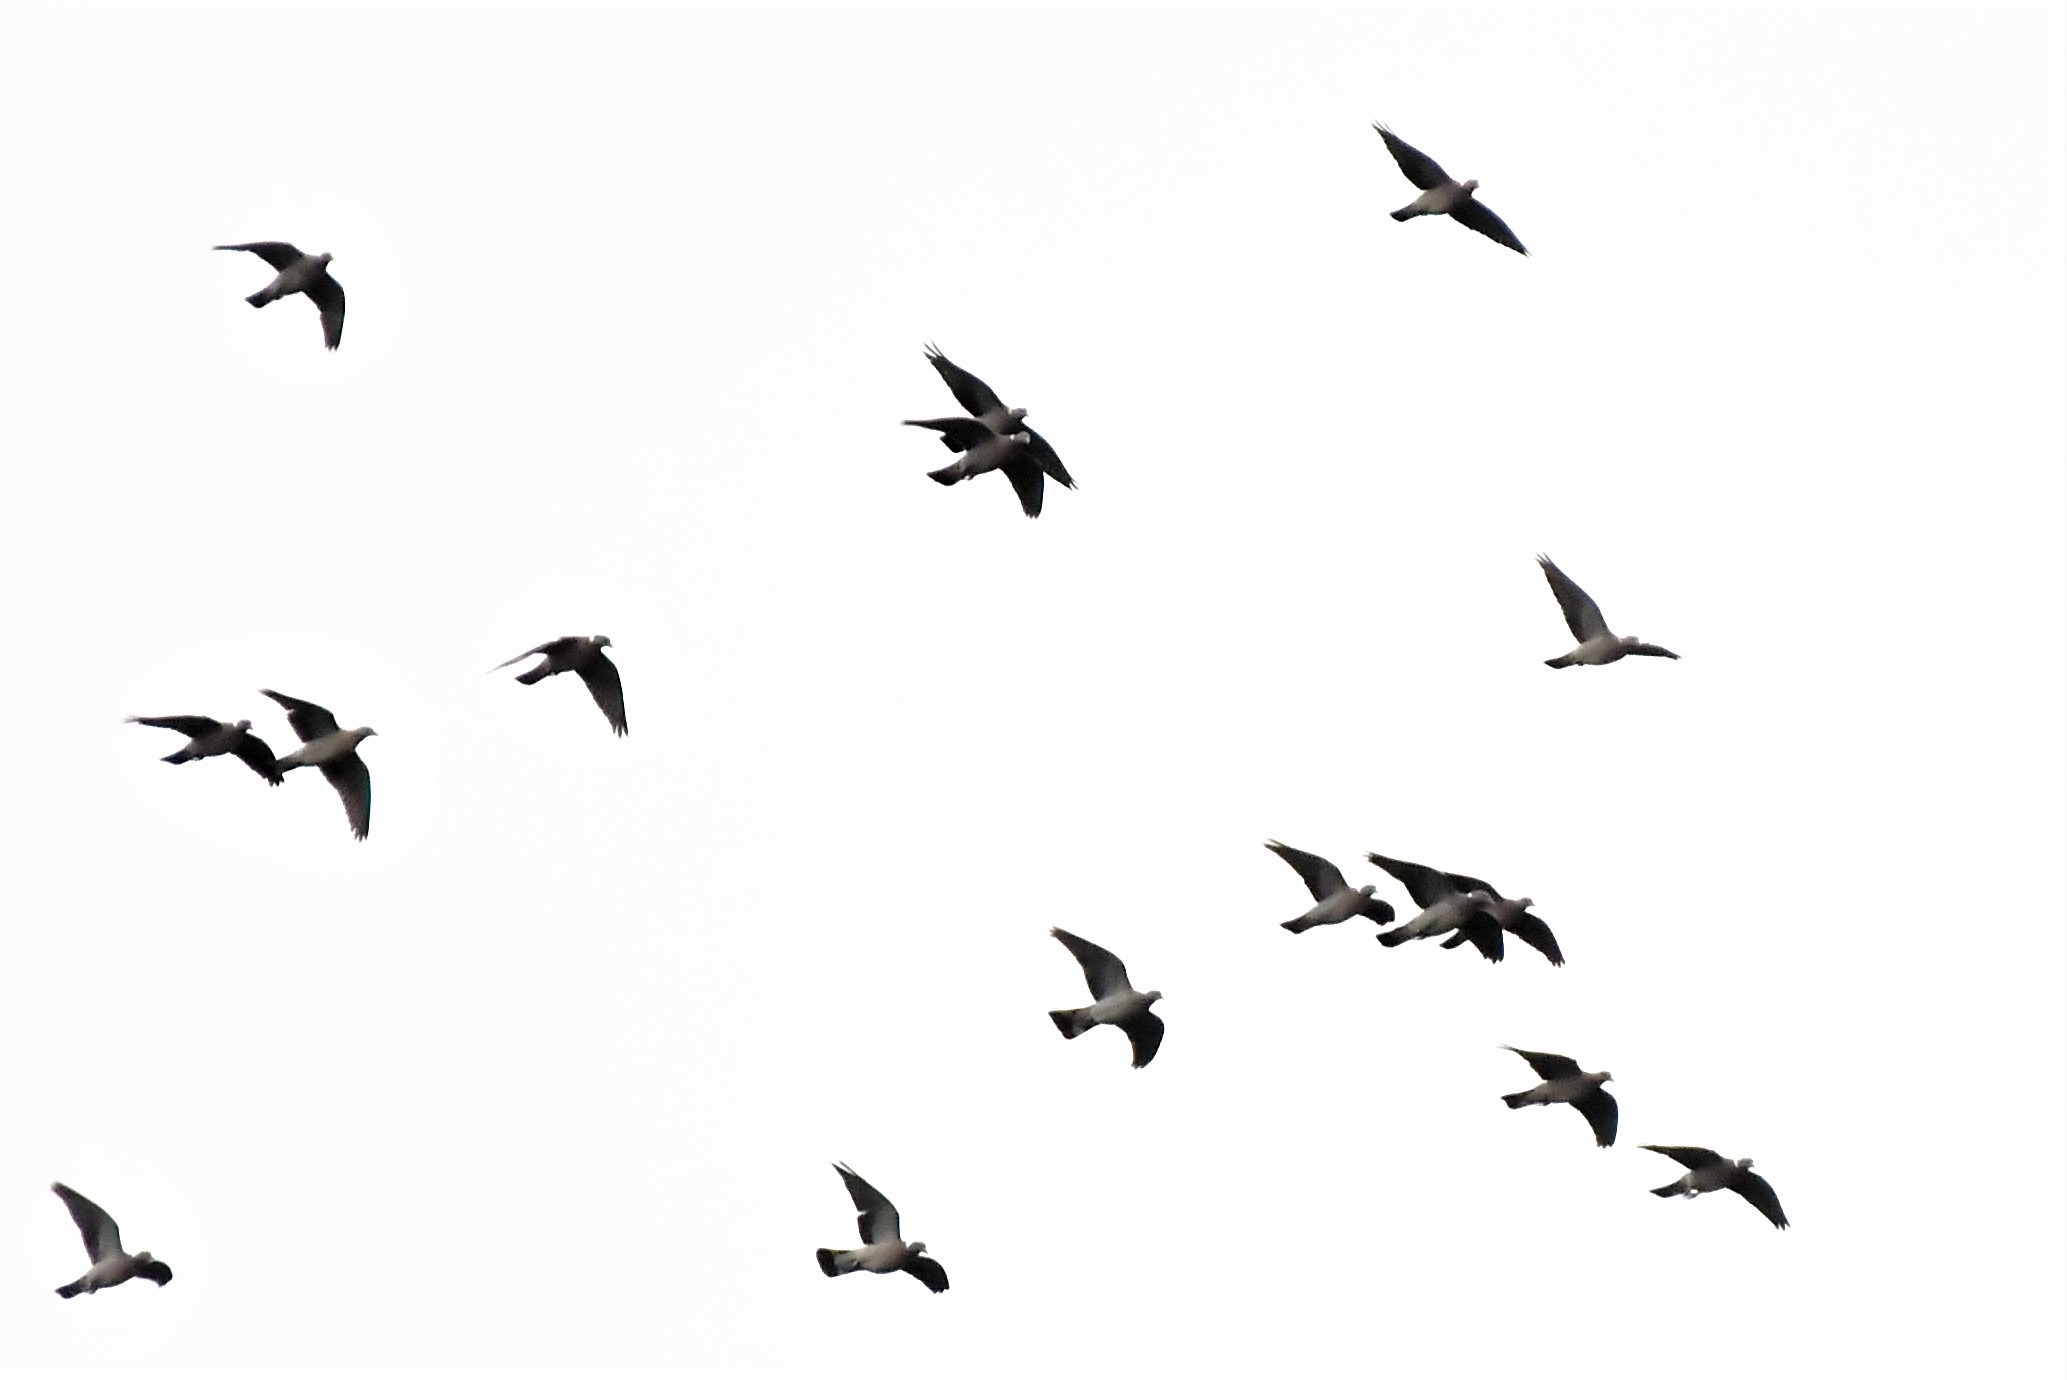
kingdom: Animalia
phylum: Chordata
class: Aves
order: Columbiformes
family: Columbidae
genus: Columba
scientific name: Columba palumbus
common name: Ringdue
